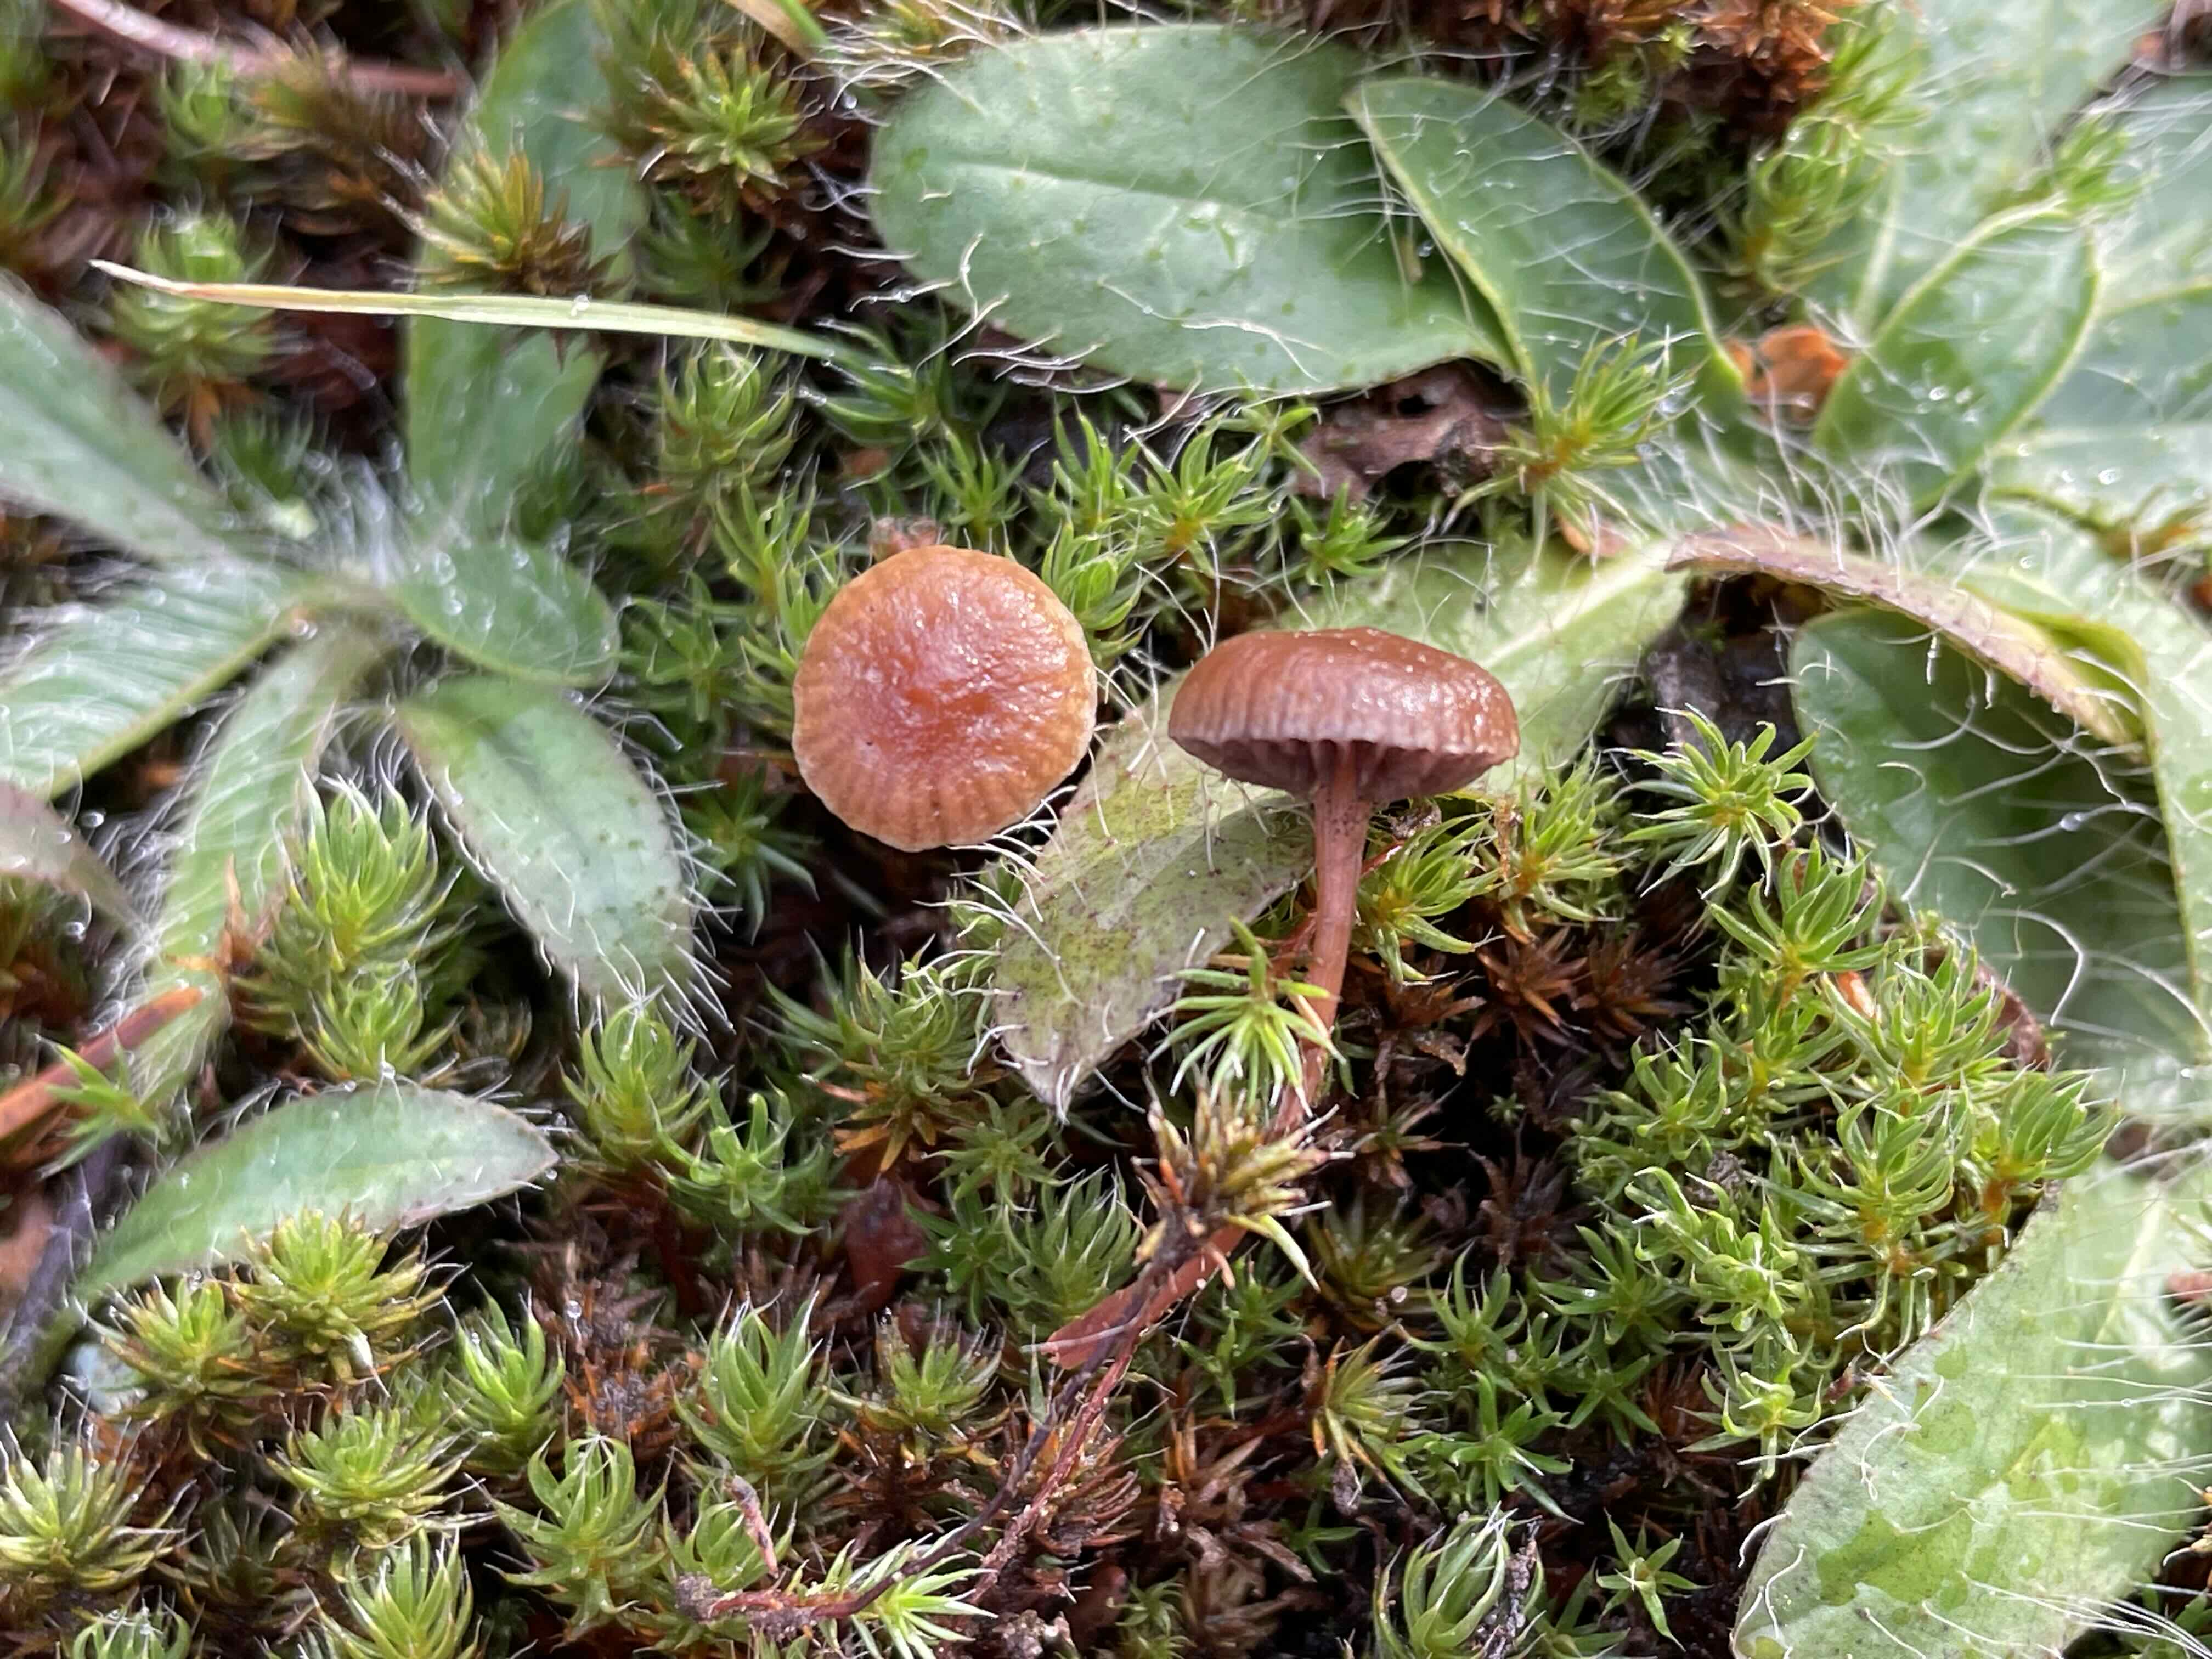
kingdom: Fungi
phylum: Basidiomycota
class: Agaricomycetes
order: Agaricales
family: Strophariaceae
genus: Deconica
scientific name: Deconica montana
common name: rødbrun stråhat
